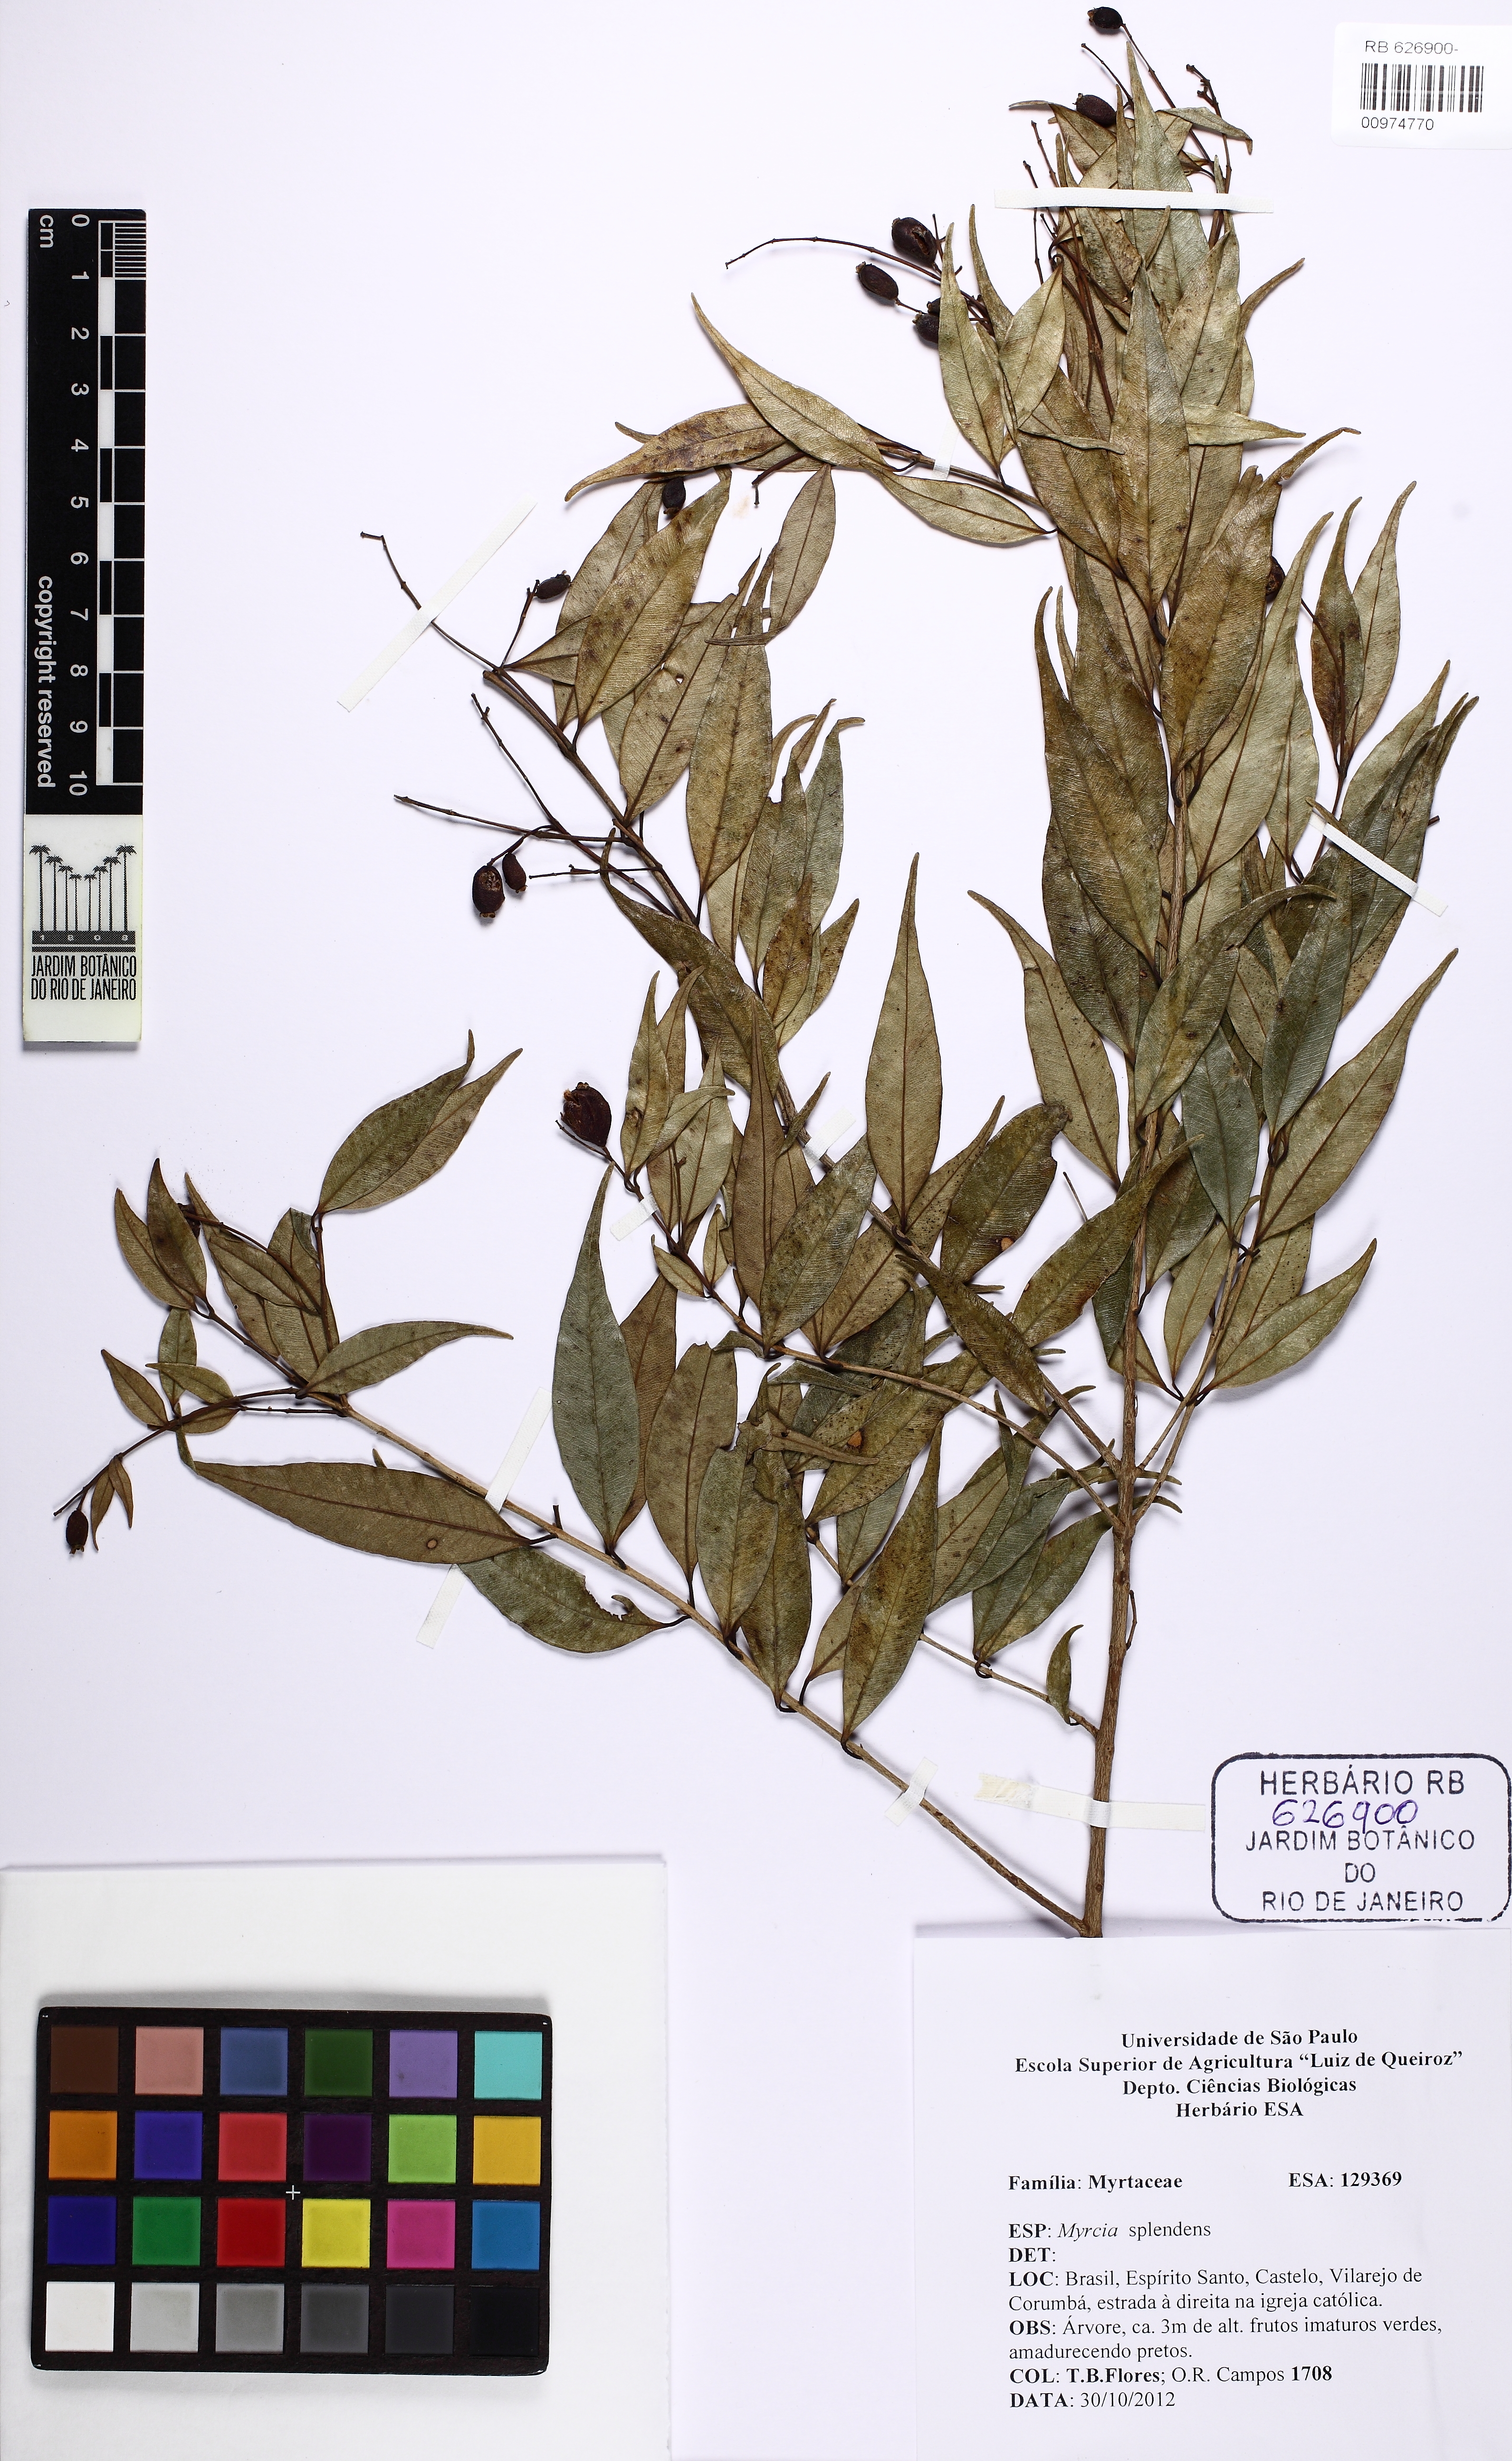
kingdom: Plantae
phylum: Tracheophyta
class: Magnoliopsida
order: Myrtales
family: Myrtaceae
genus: Myrcia
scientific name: Myrcia splendens
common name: Surinam cherry
